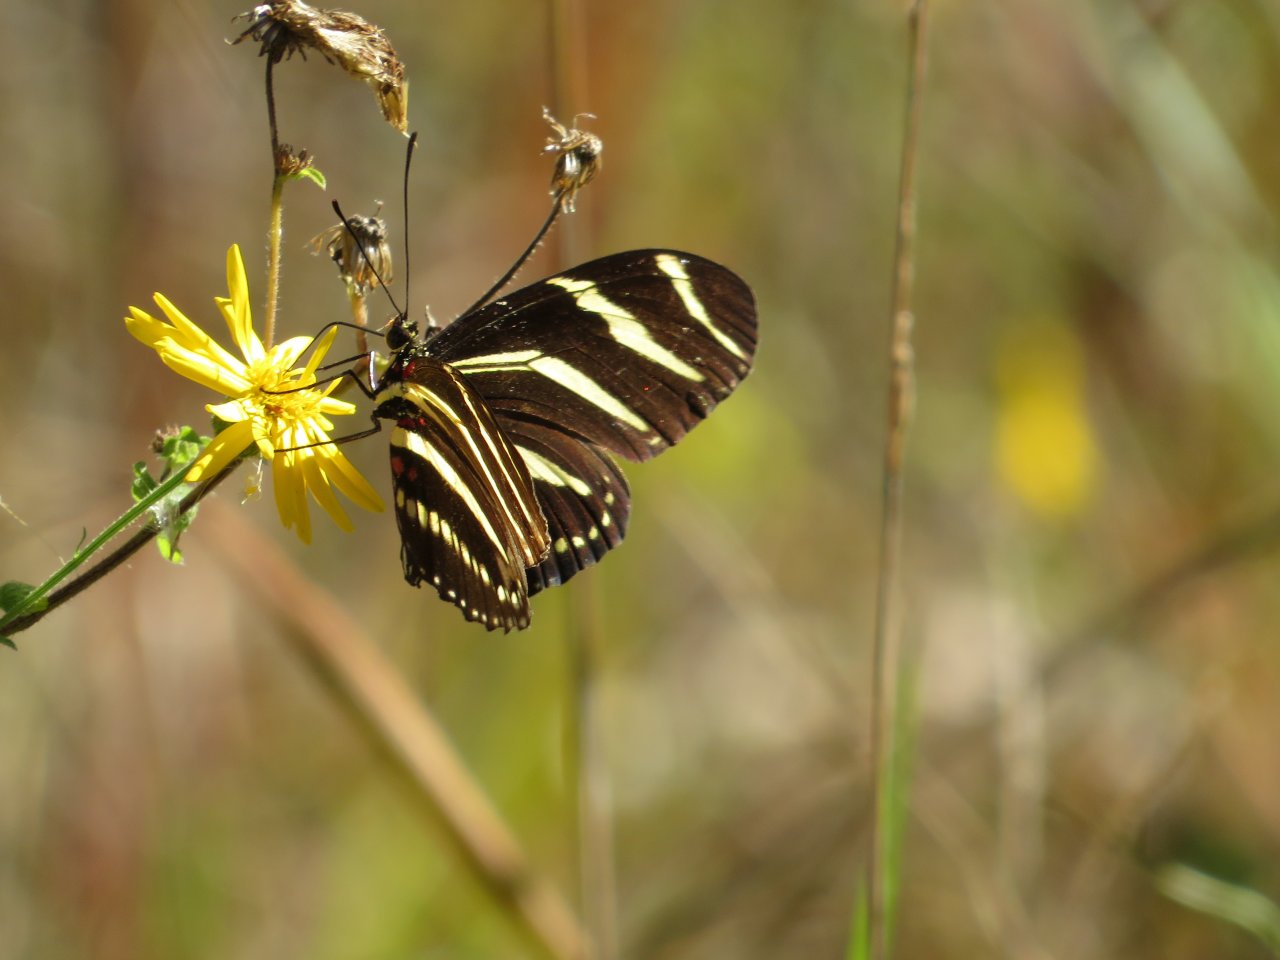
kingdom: Animalia
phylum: Arthropoda
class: Insecta
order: Lepidoptera
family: Nymphalidae
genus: Heliconius
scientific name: Heliconius charithonia
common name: Zebra Longwing
